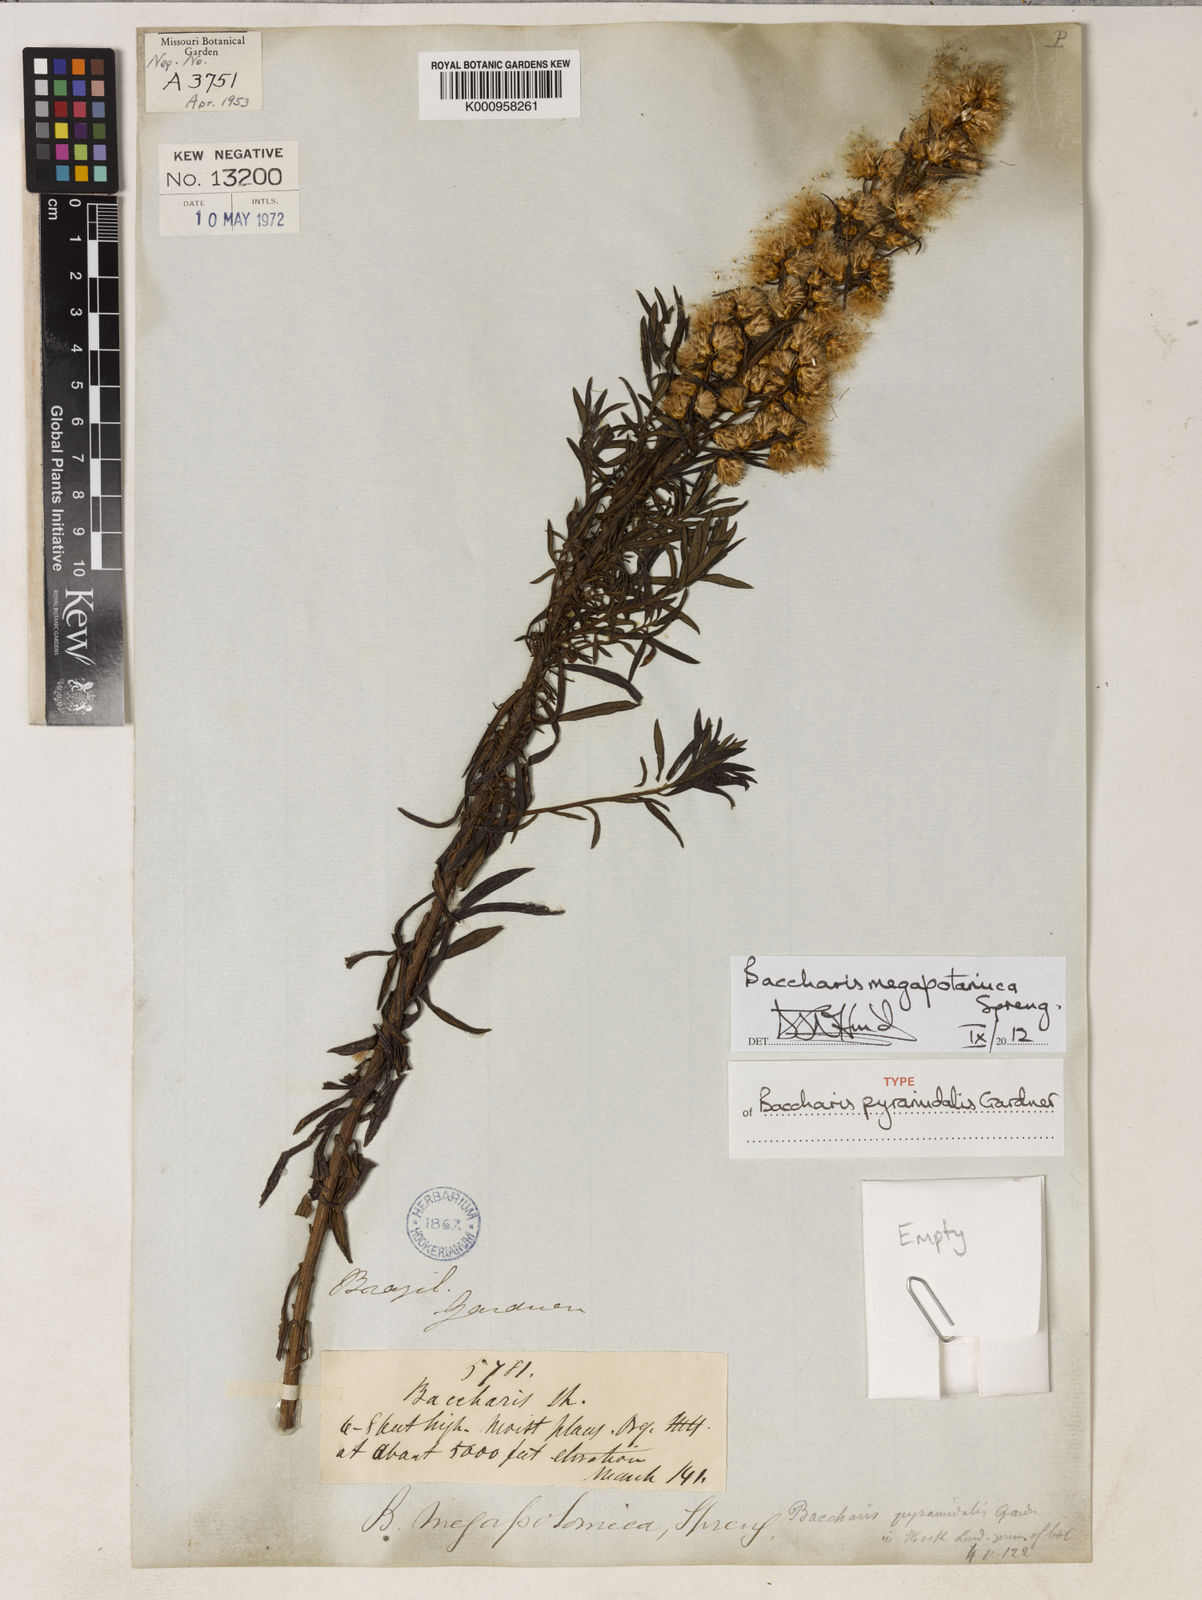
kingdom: Plantae
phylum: Tracheophyta
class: Magnoliopsida
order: Asterales
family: Asteraceae
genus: Baccharis
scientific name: Baccharis megapotamica
